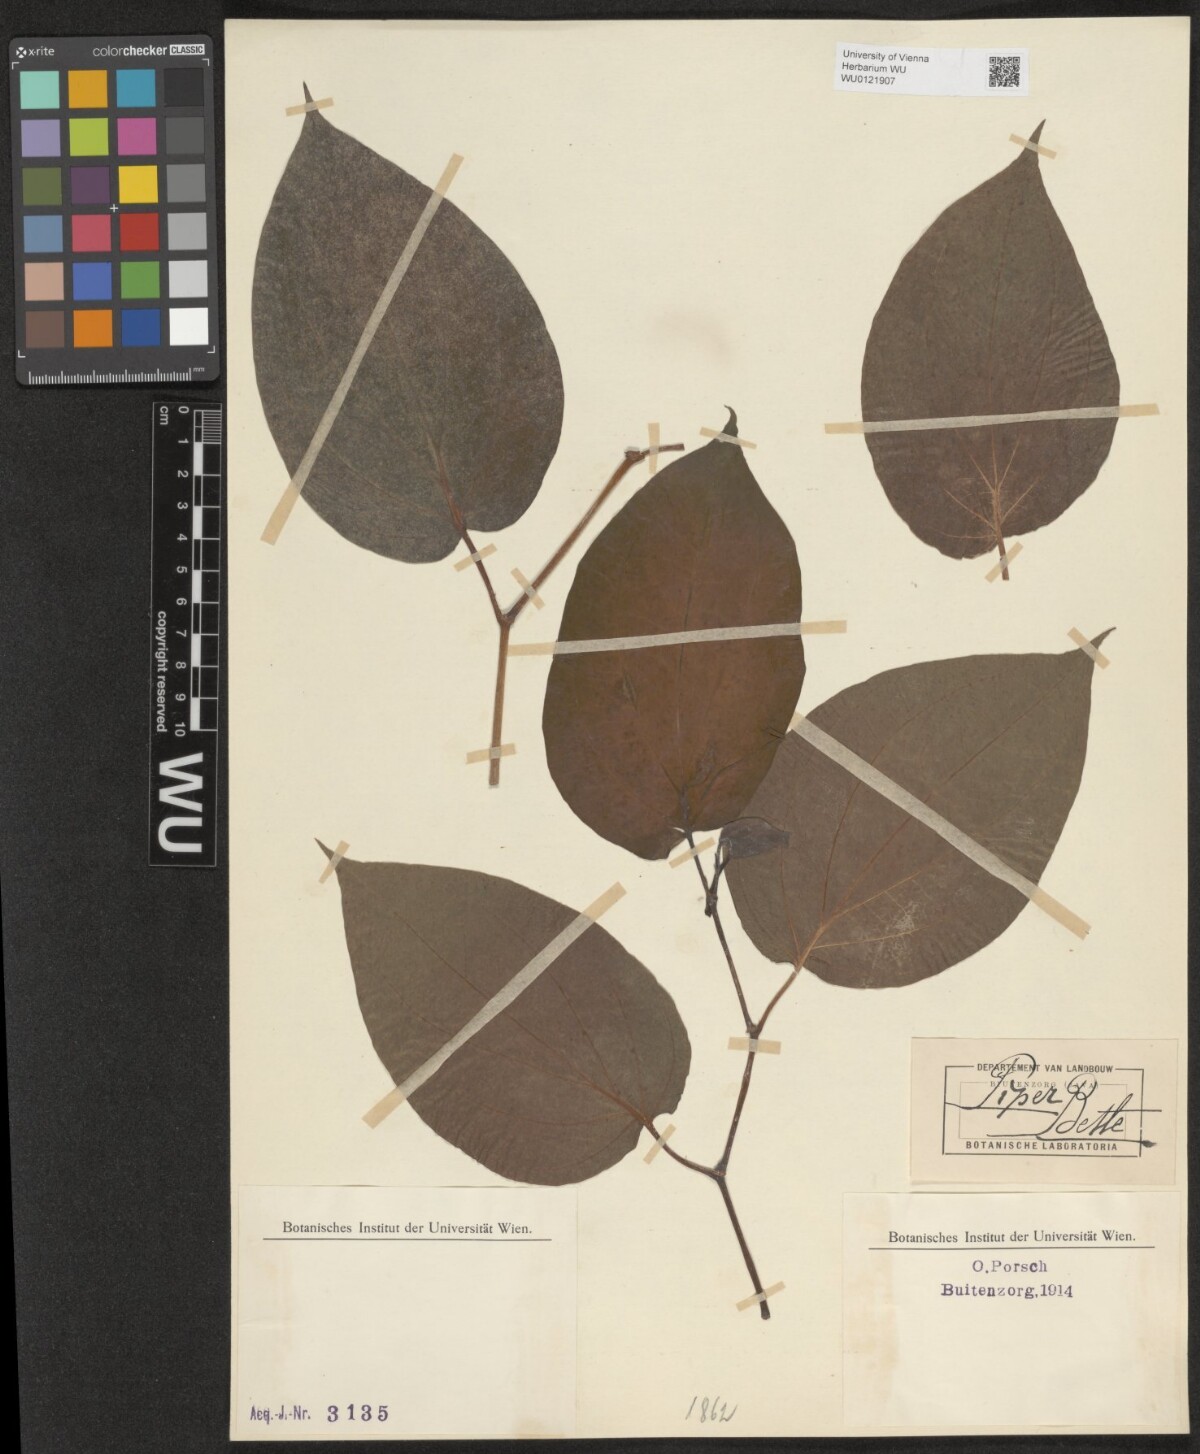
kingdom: Plantae
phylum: Tracheophyta
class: Magnoliopsida
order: Piperales
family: Piperaceae
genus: Piper
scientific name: Piper betle
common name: Betel pepper
